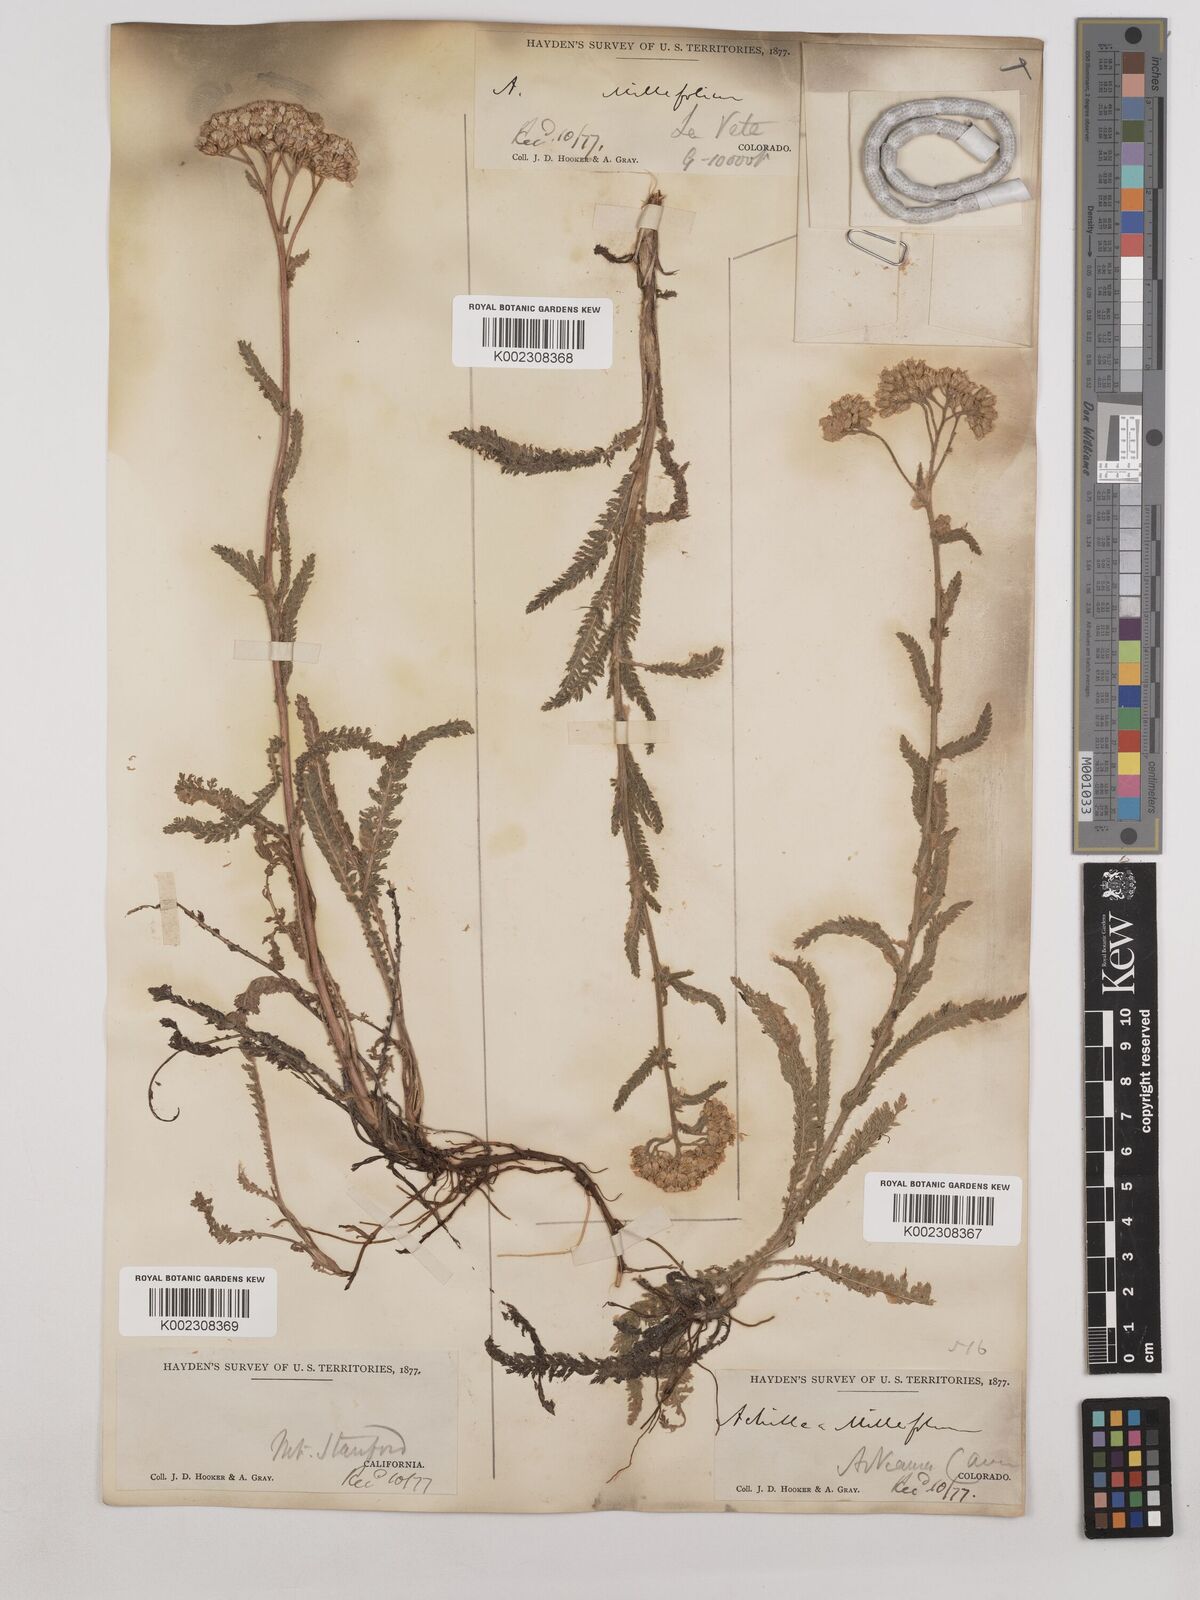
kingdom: Plantae
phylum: Tracheophyta
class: Magnoliopsida
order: Asterales
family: Asteraceae
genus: Achillea
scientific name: Achillea millefolium
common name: Yarrow
